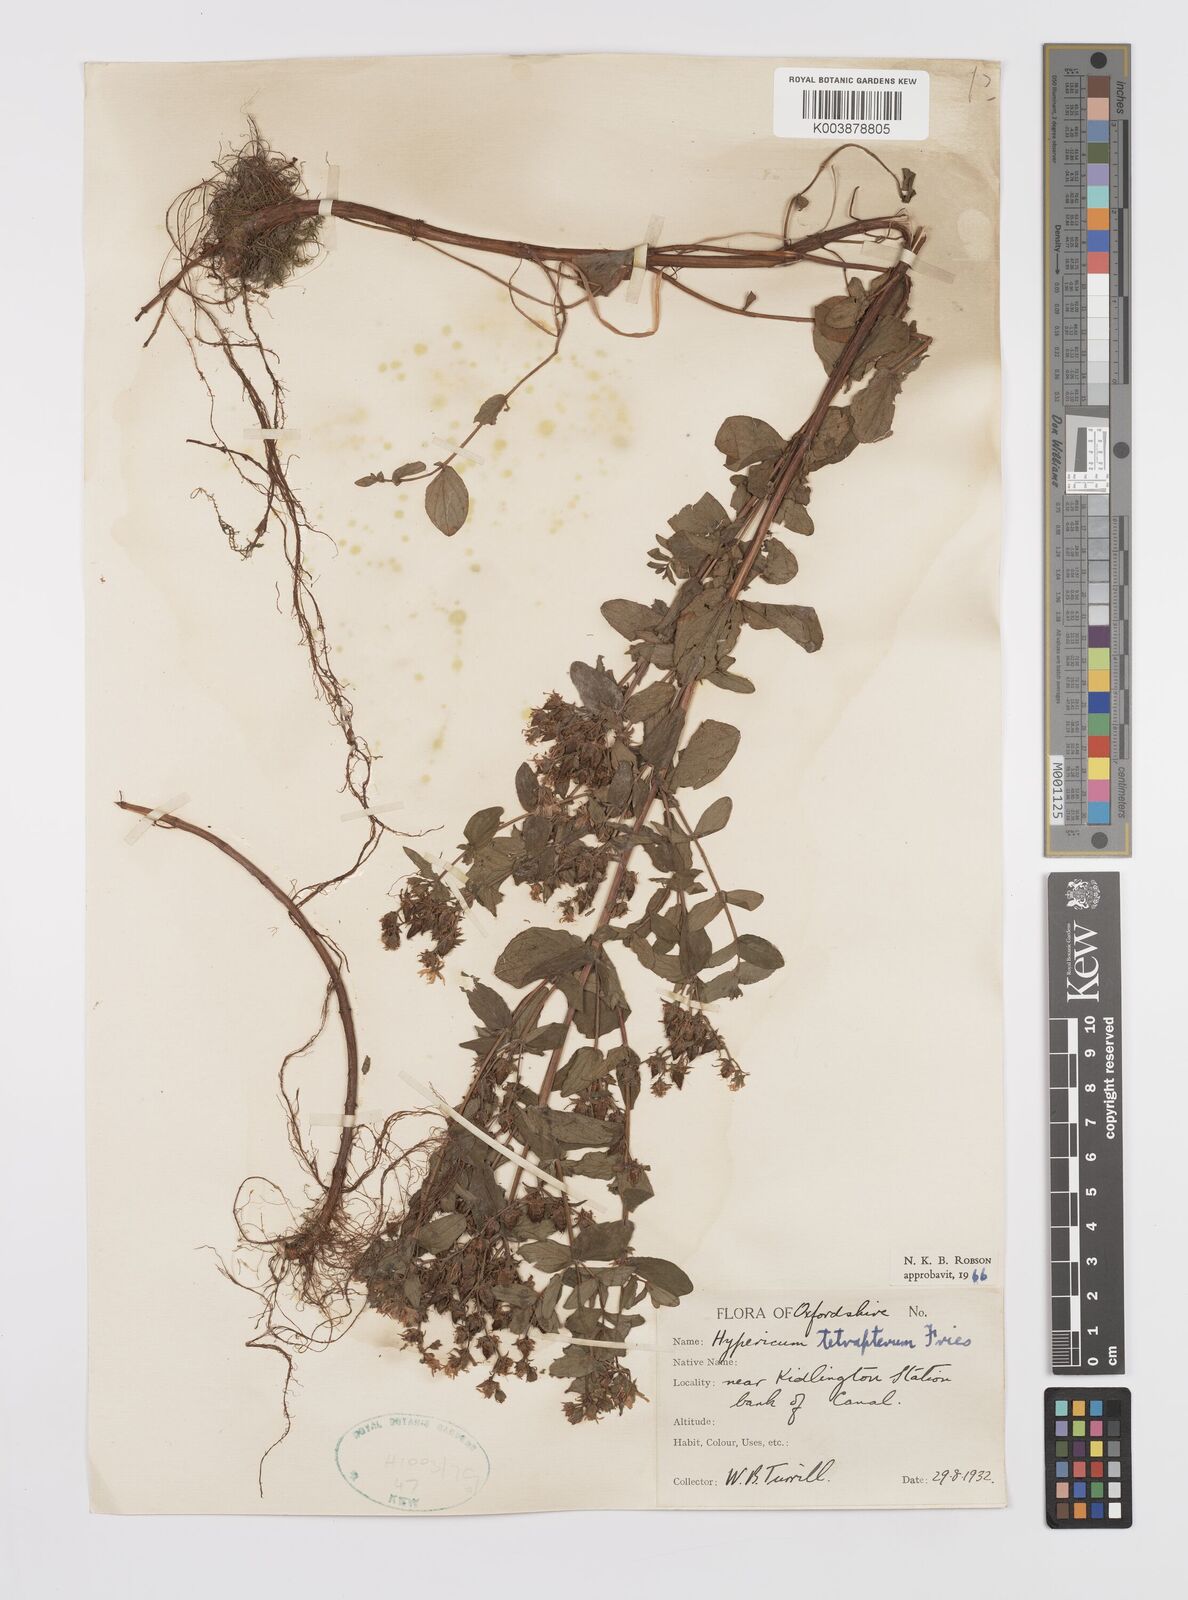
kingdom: Plantae
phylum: Tracheophyta
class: Magnoliopsida
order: Malpighiales
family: Hypericaceae
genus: Hypericum
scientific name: Hypericum tetrapterum
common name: Square-stalked st. john's-wort
